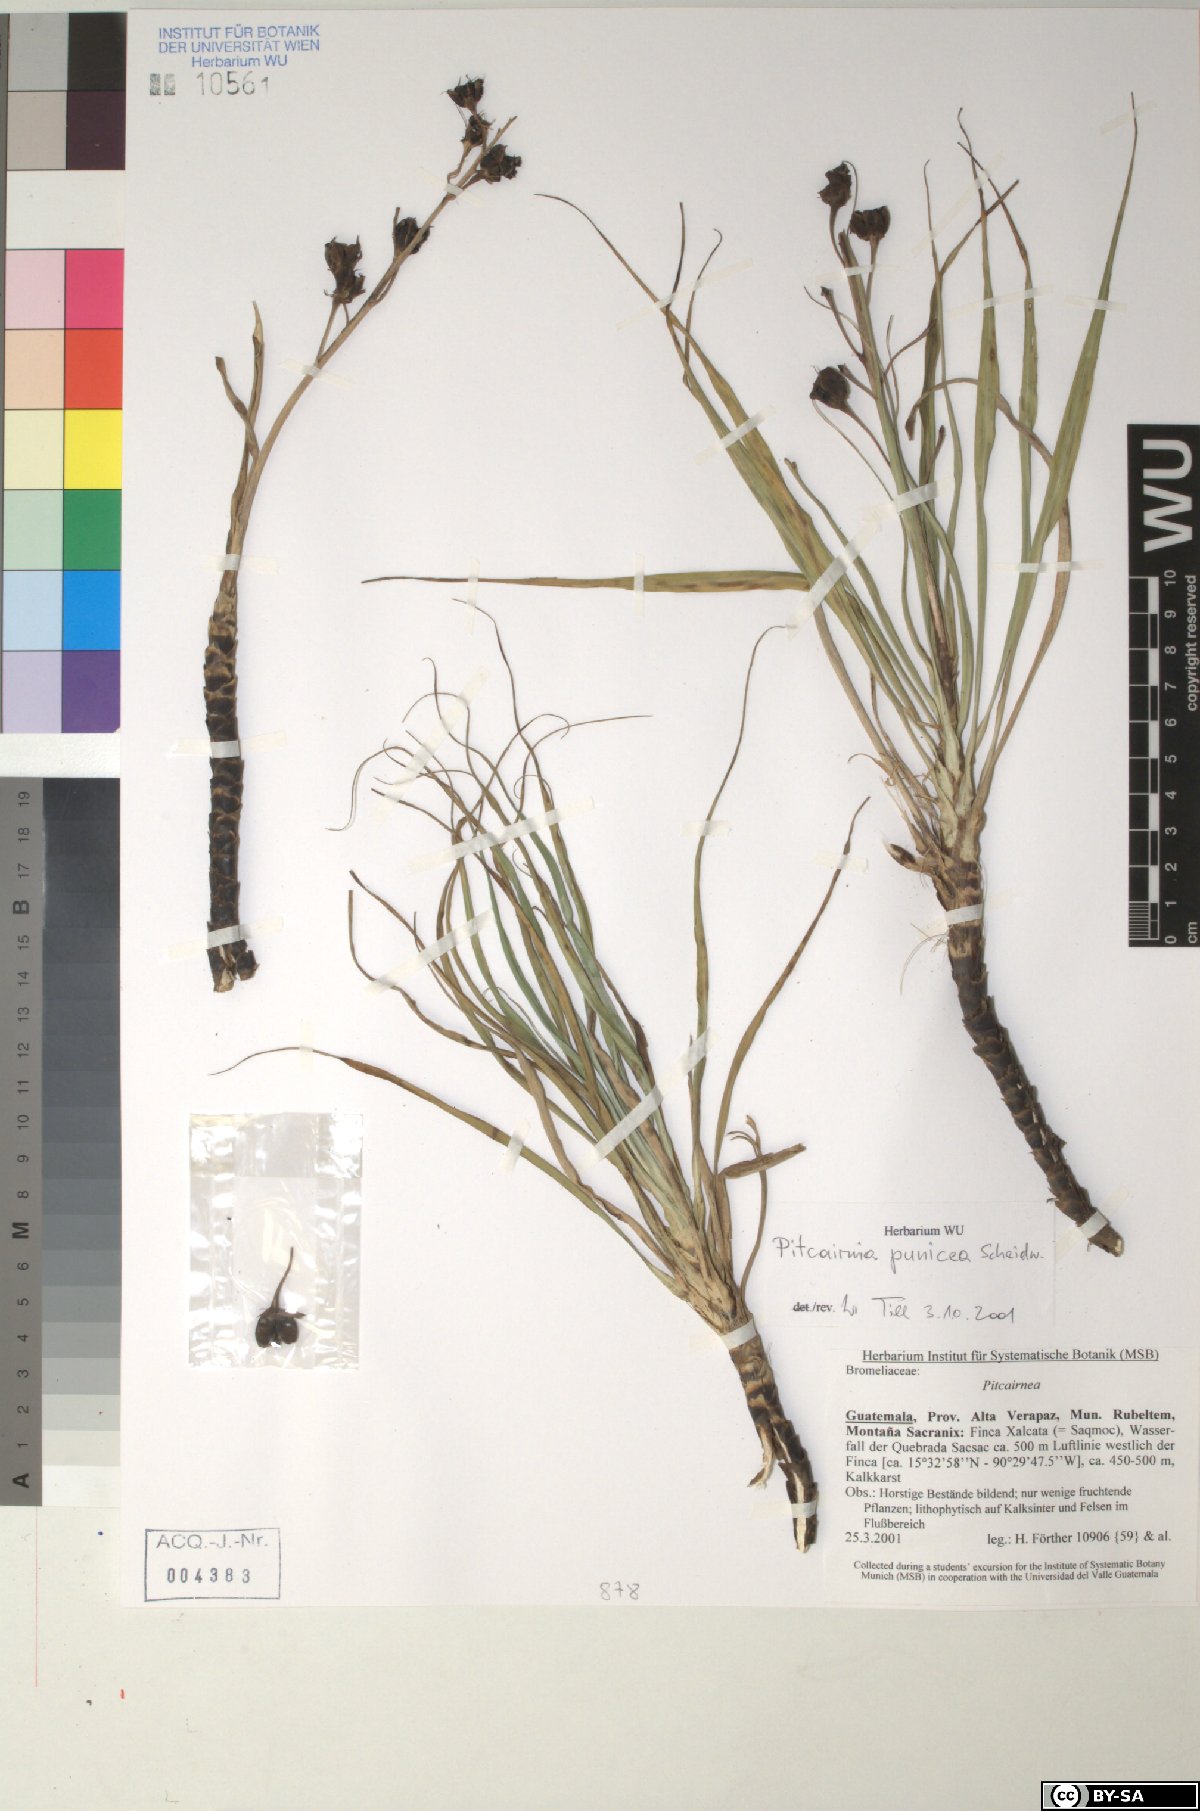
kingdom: Plantae
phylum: Tracheophyta
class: Liliopsida
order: Poales
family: Bromeliaceae
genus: Pitcairnia
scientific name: Pitcairnia punicea
